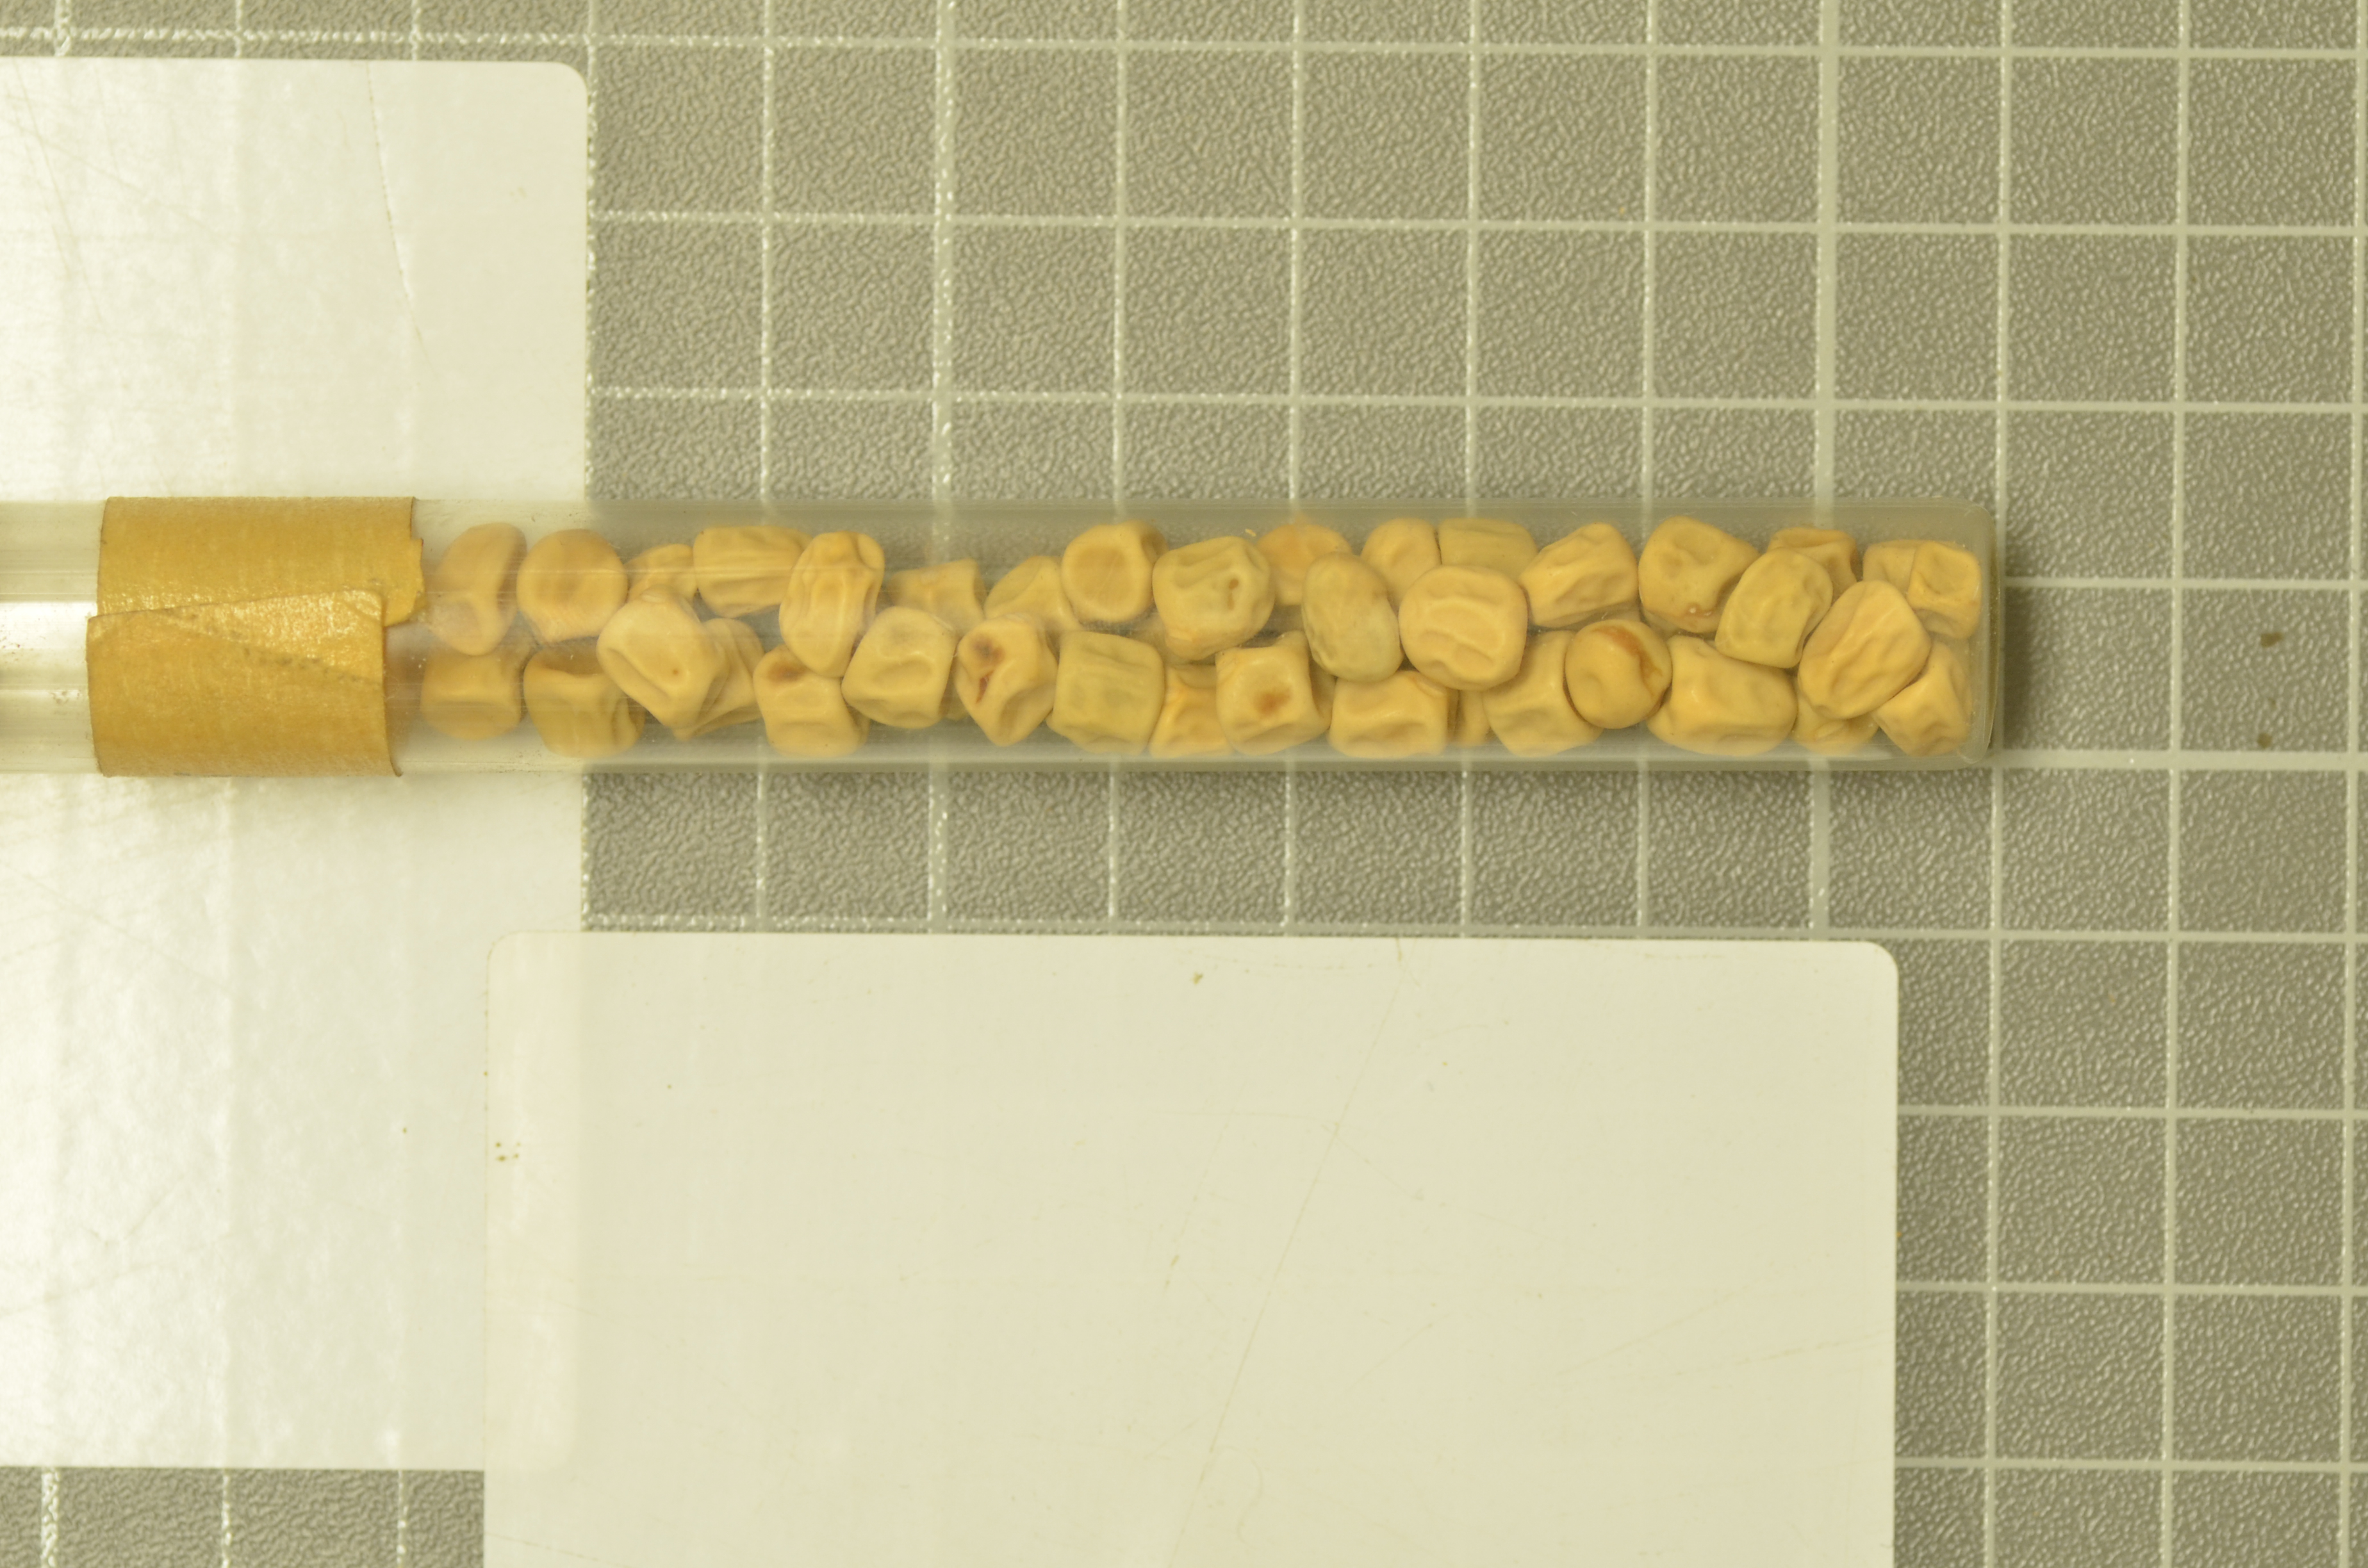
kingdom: Plantae
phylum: Tracheophyta
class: Magnoliopsida
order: Fabales
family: Fabaceae
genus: Lathyrus
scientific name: Lathyrus oleraceus
